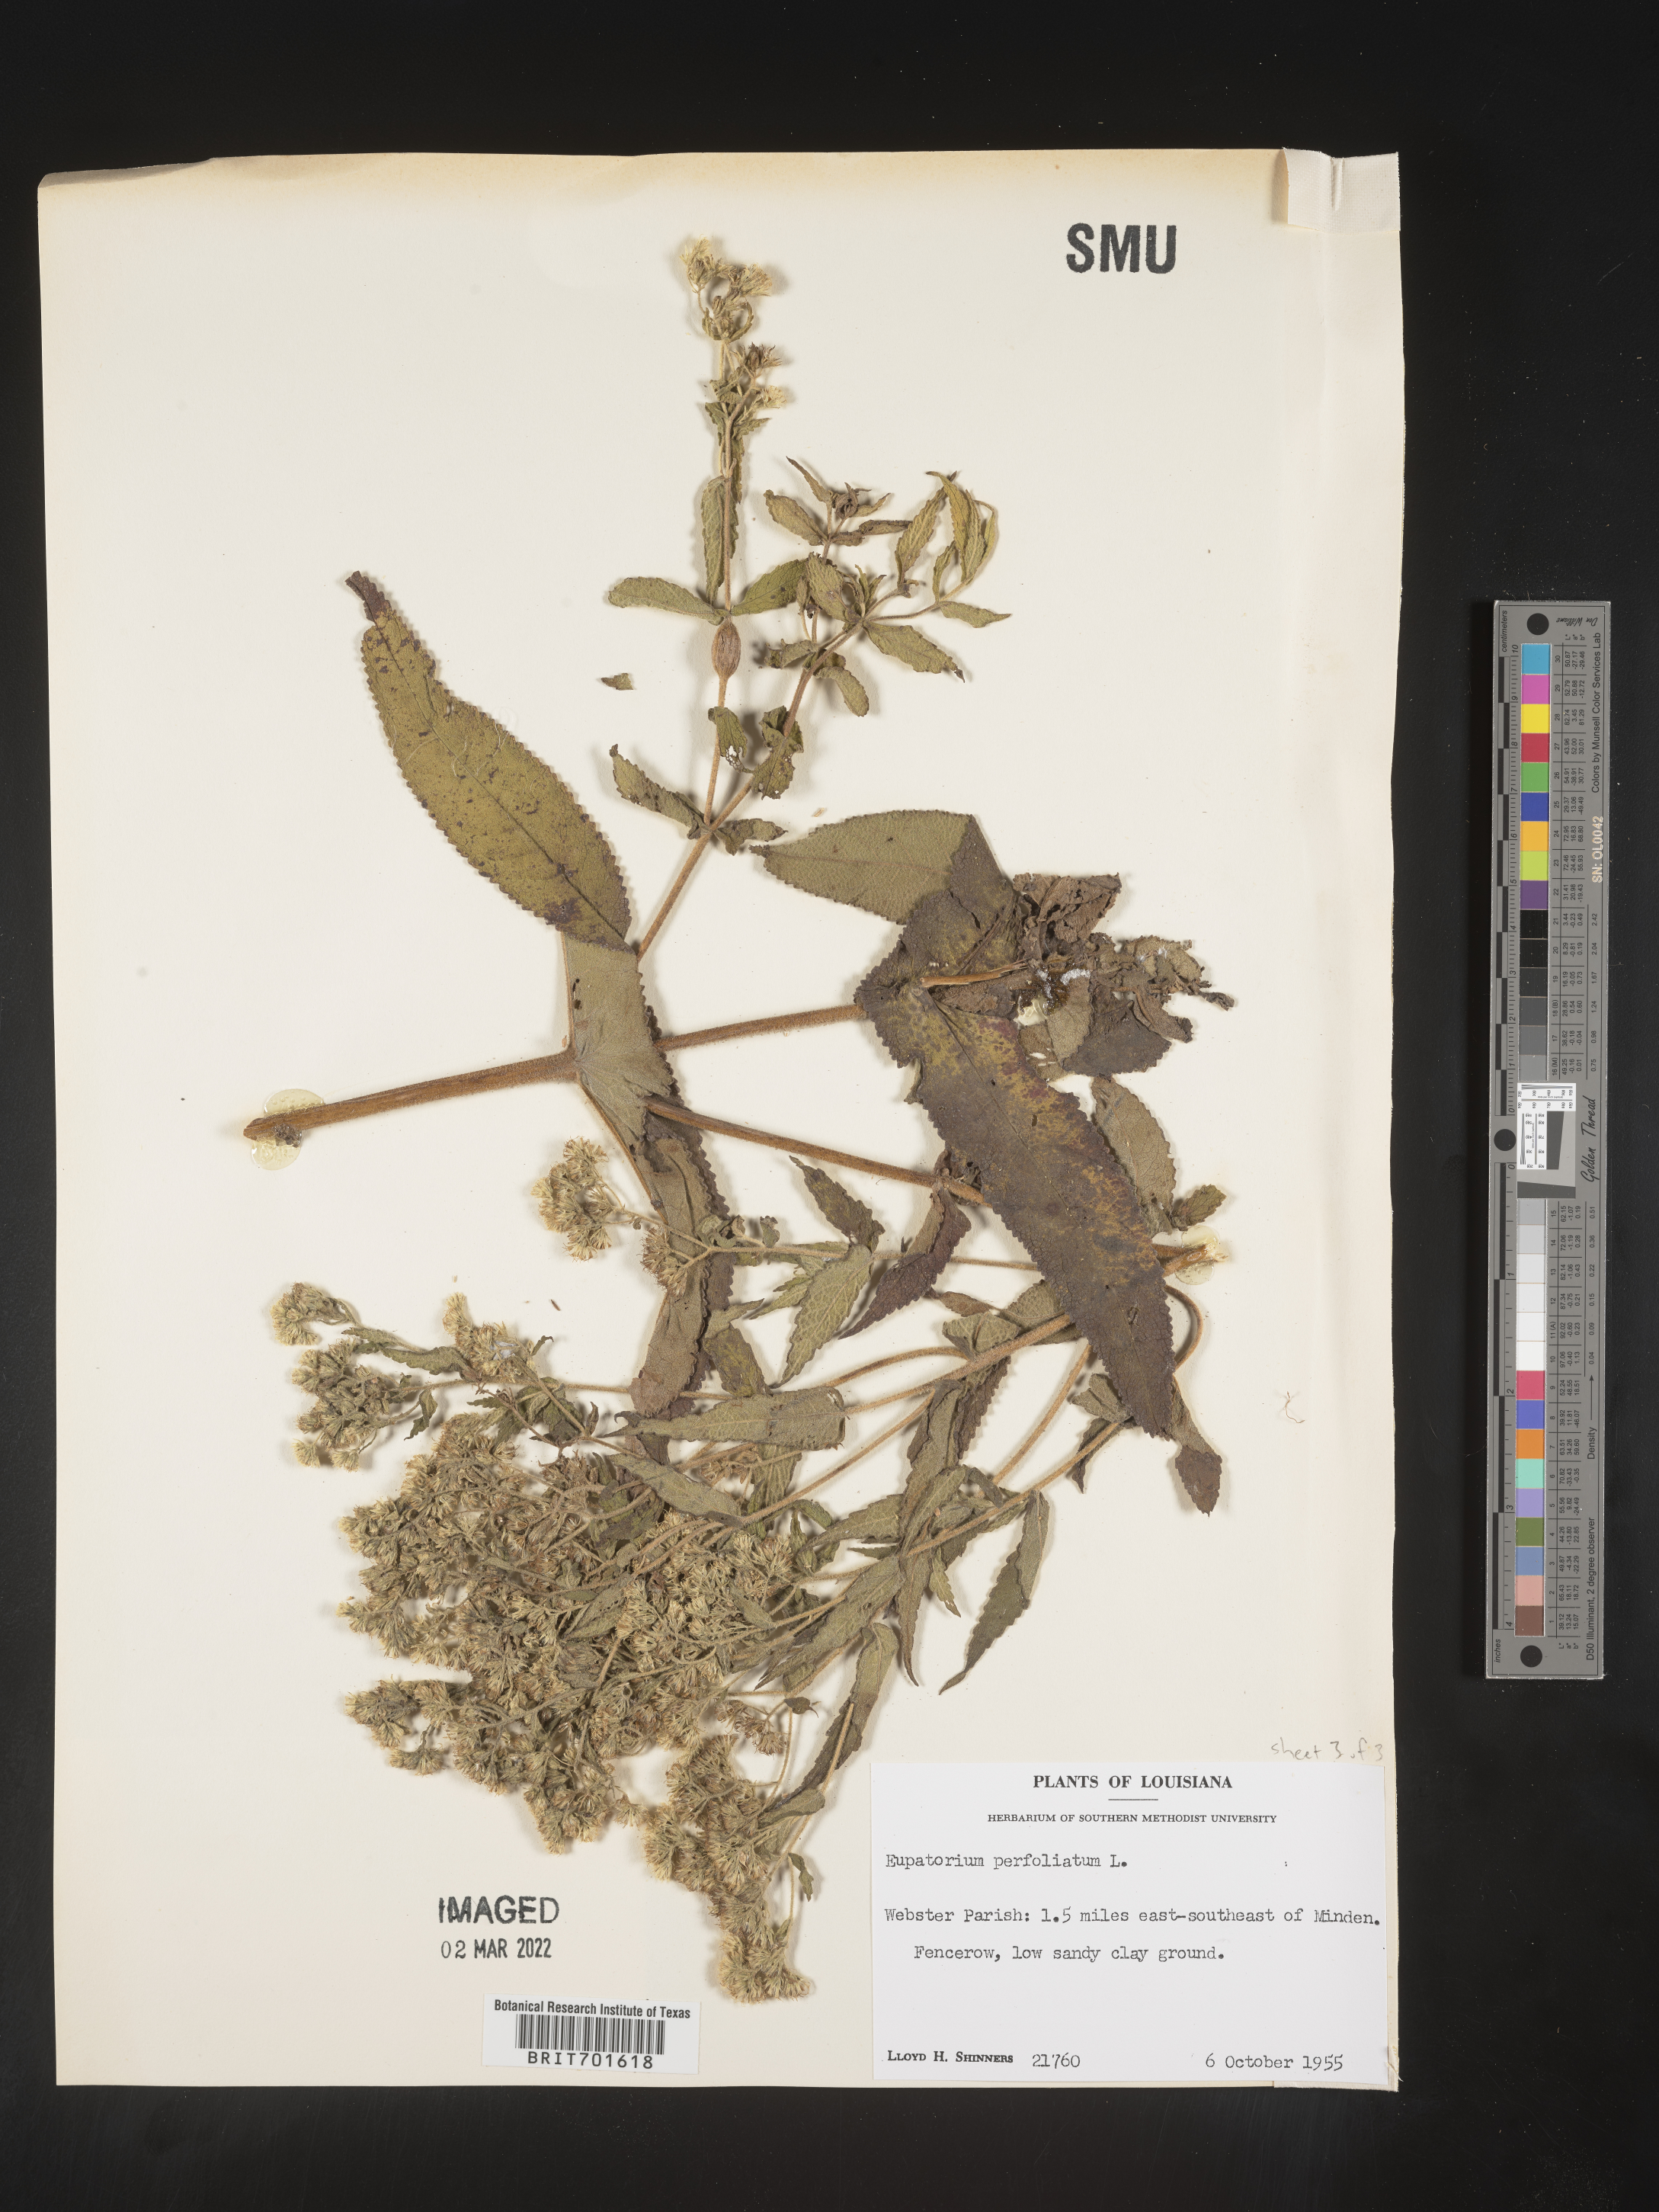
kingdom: Plantae
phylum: Tracheophyta
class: Magnoliopsida
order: Asterales
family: Asteraceae
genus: Eupatorium
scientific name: Eupatorium perfoliatum
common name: Boneset
